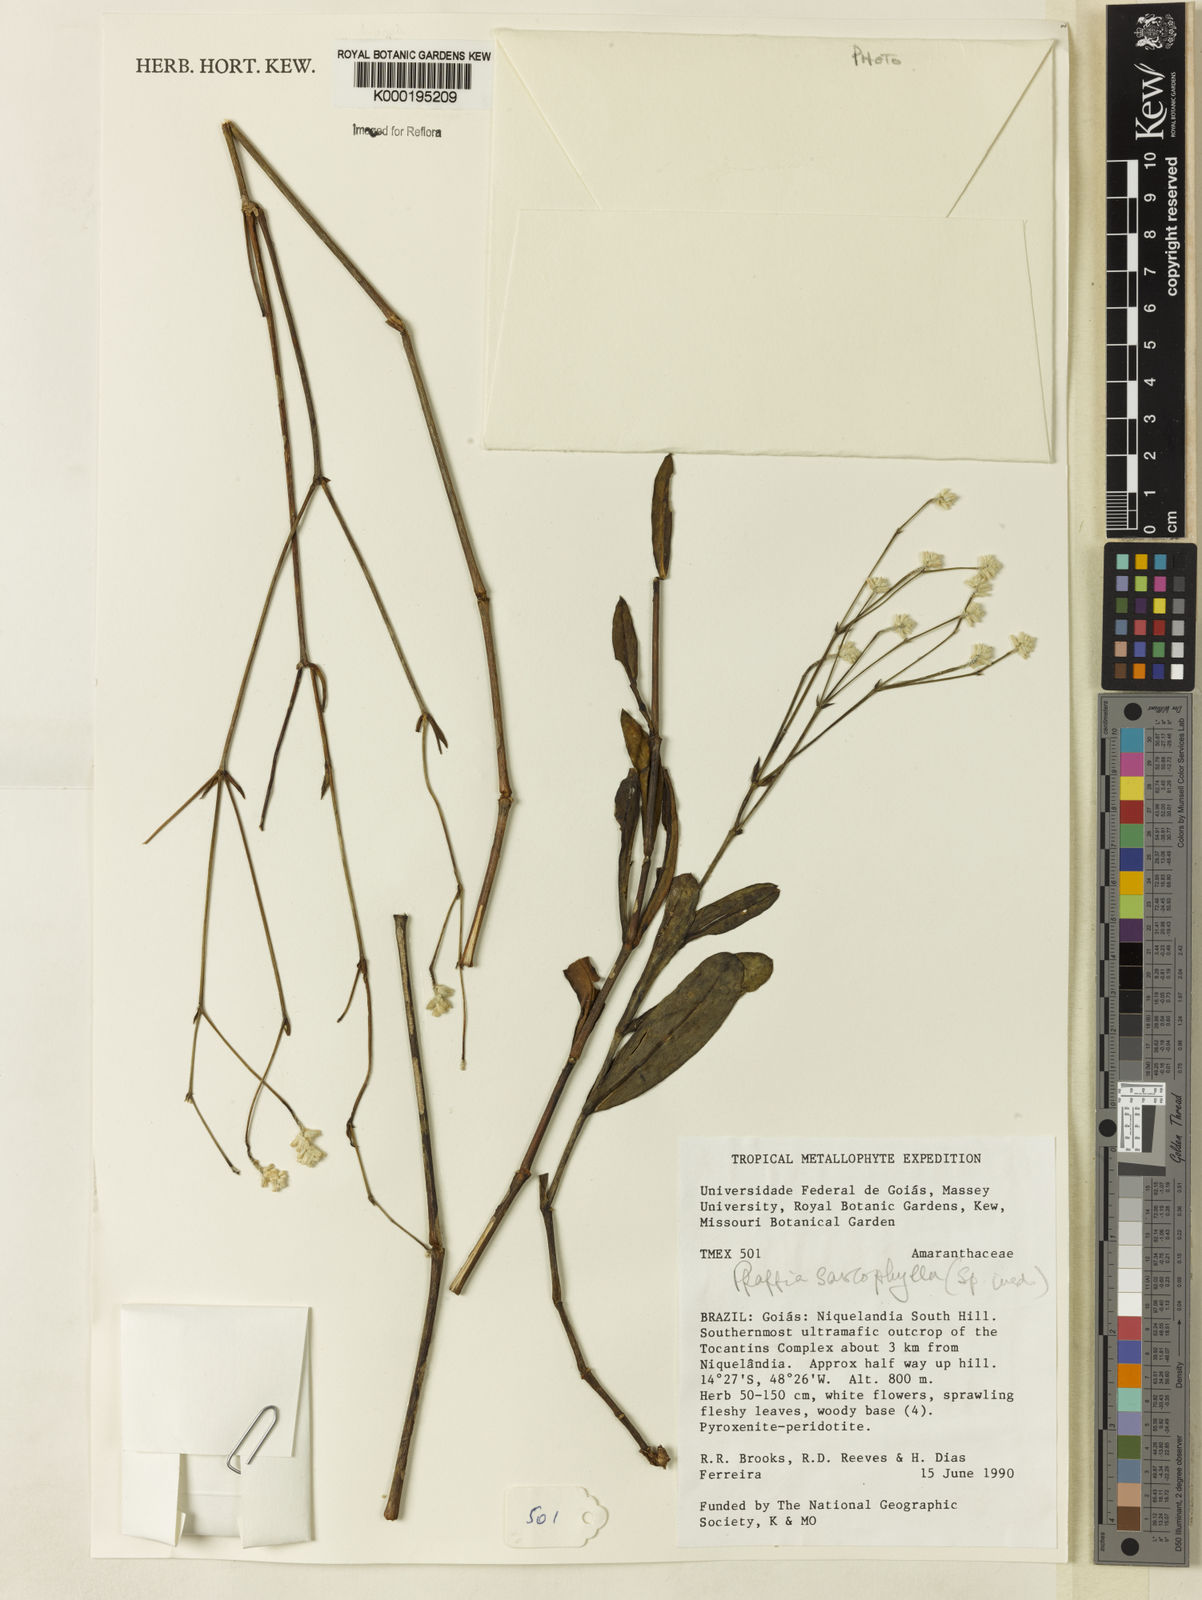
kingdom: Plantae
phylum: Tracheophyta
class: Magnoliopsida
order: Caryophyllales
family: Amaranthaceae
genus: Pfaffia
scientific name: Pfaffia sarcophylla
